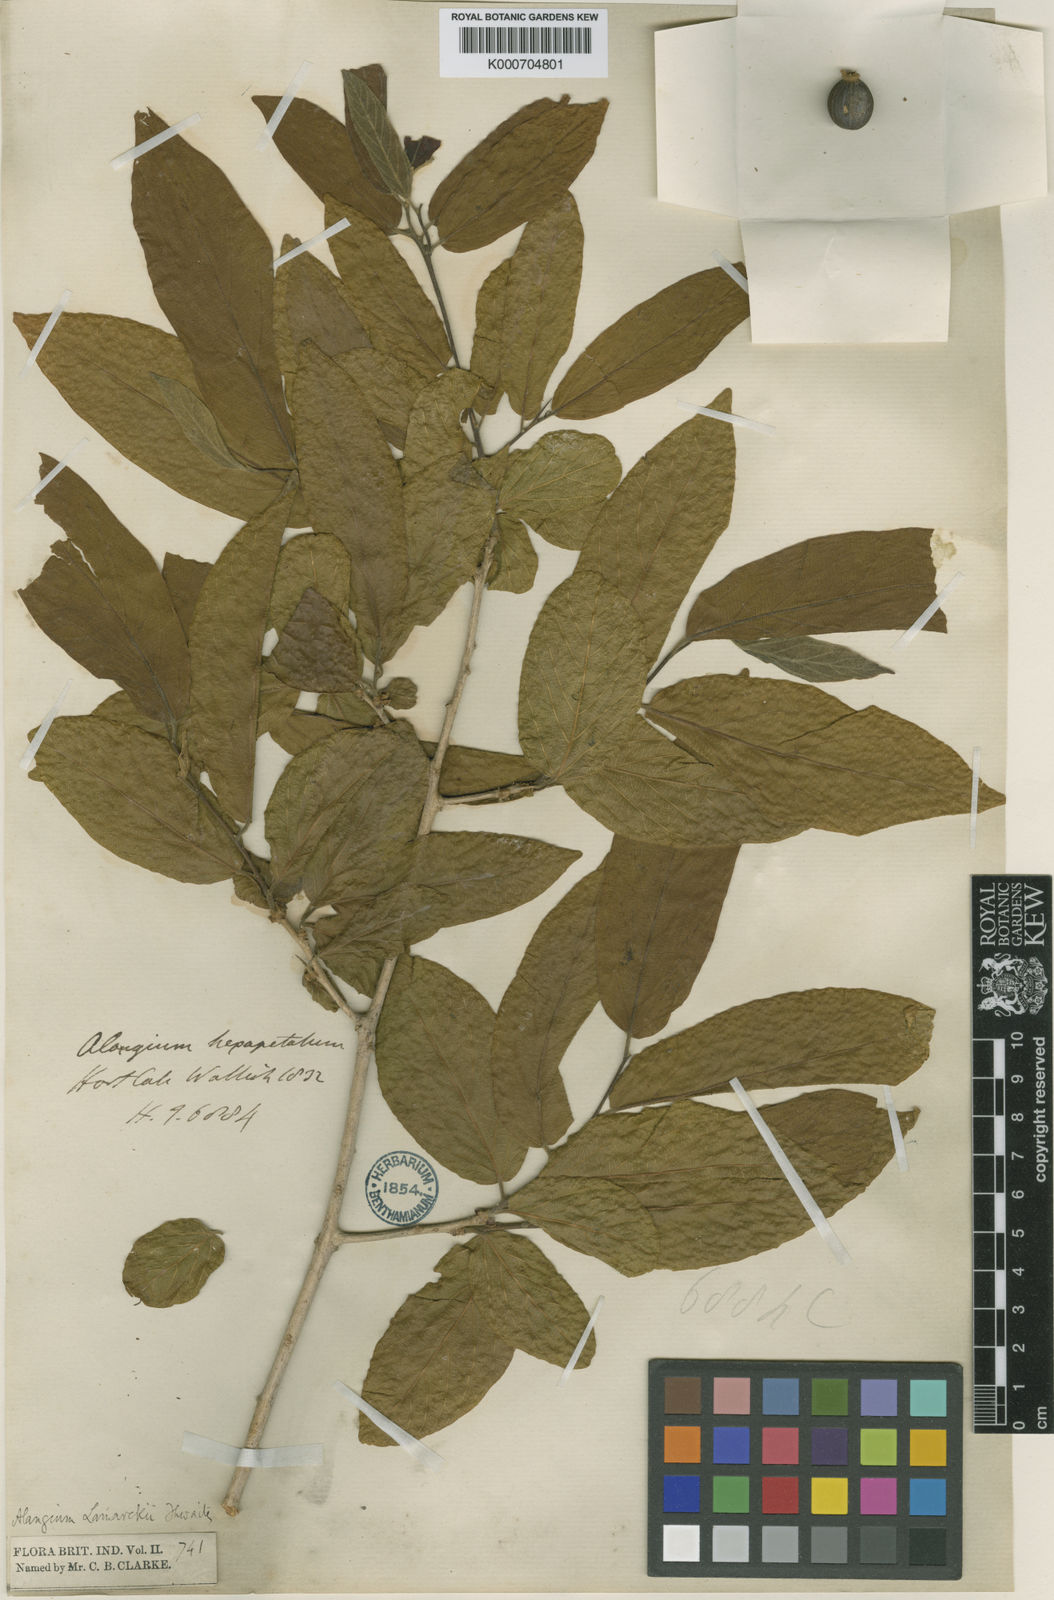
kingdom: Plantae
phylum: Tracheophyta
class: Magnoliopsida
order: Cornales
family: Cornaceae
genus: Alangium
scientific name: Alangium salviifolium
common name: Sage-leaf alangium
